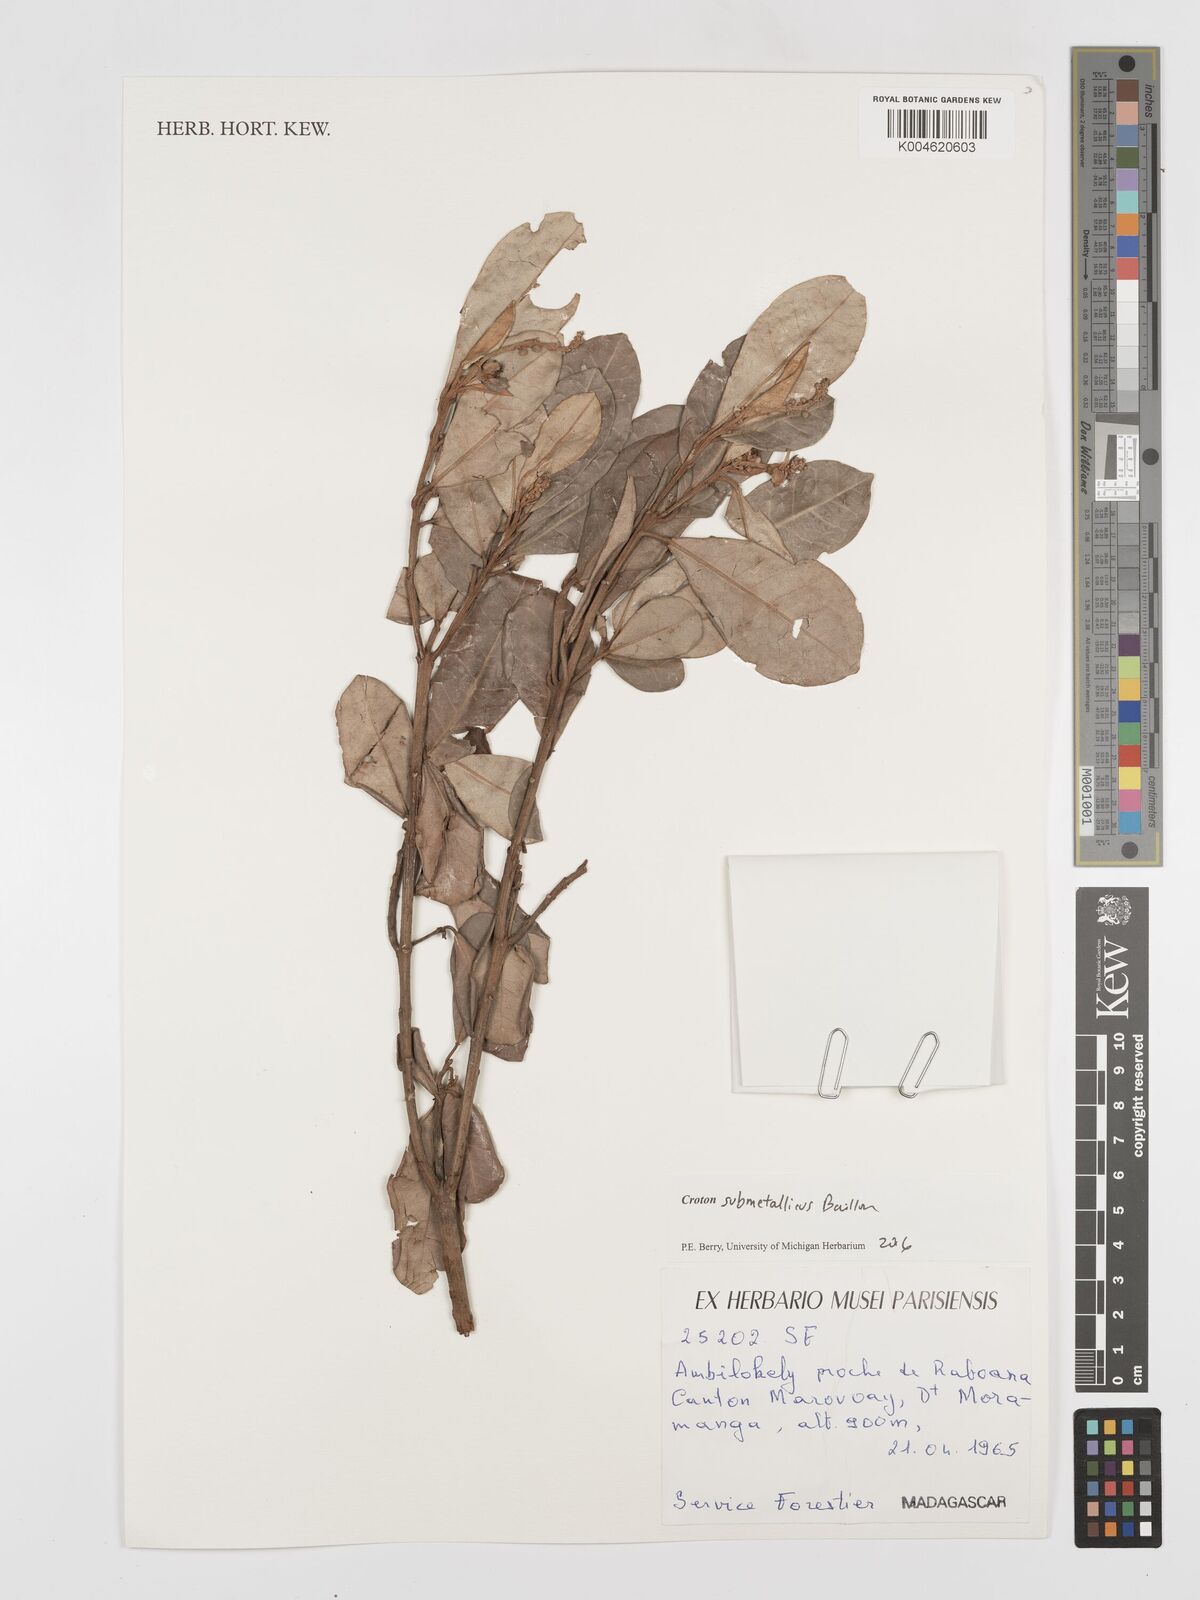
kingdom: Plantae
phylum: Tracheophyta
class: Magnoliopsida
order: Malpighiales
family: Euphorbiaceae
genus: Croton
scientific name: Croton submetallicus
